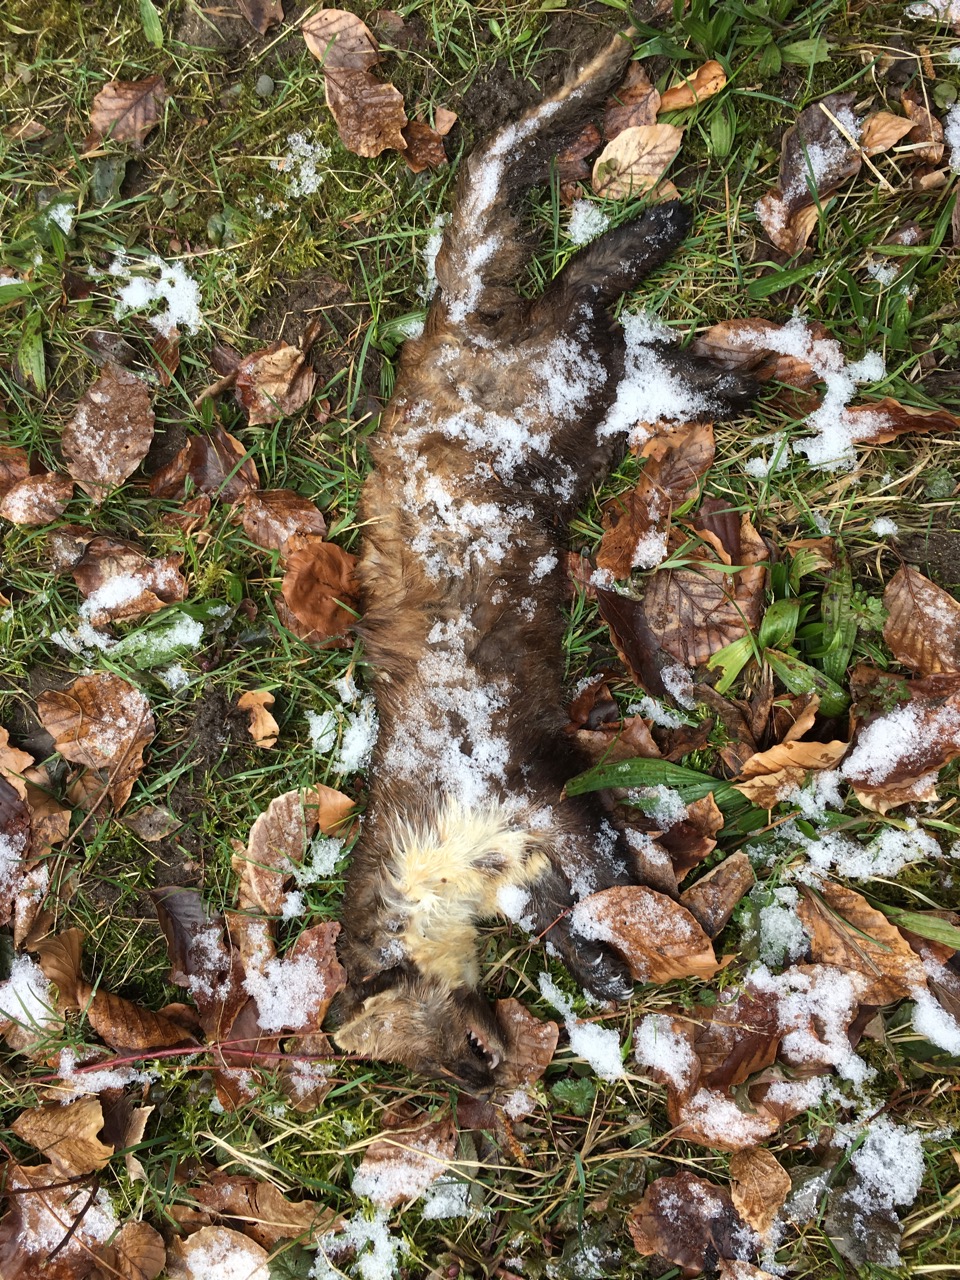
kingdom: Animalia
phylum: Chordata
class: Mammalia
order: Carnivora
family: Mustelidae
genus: Martes
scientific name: Martes martes
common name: European pine marten
